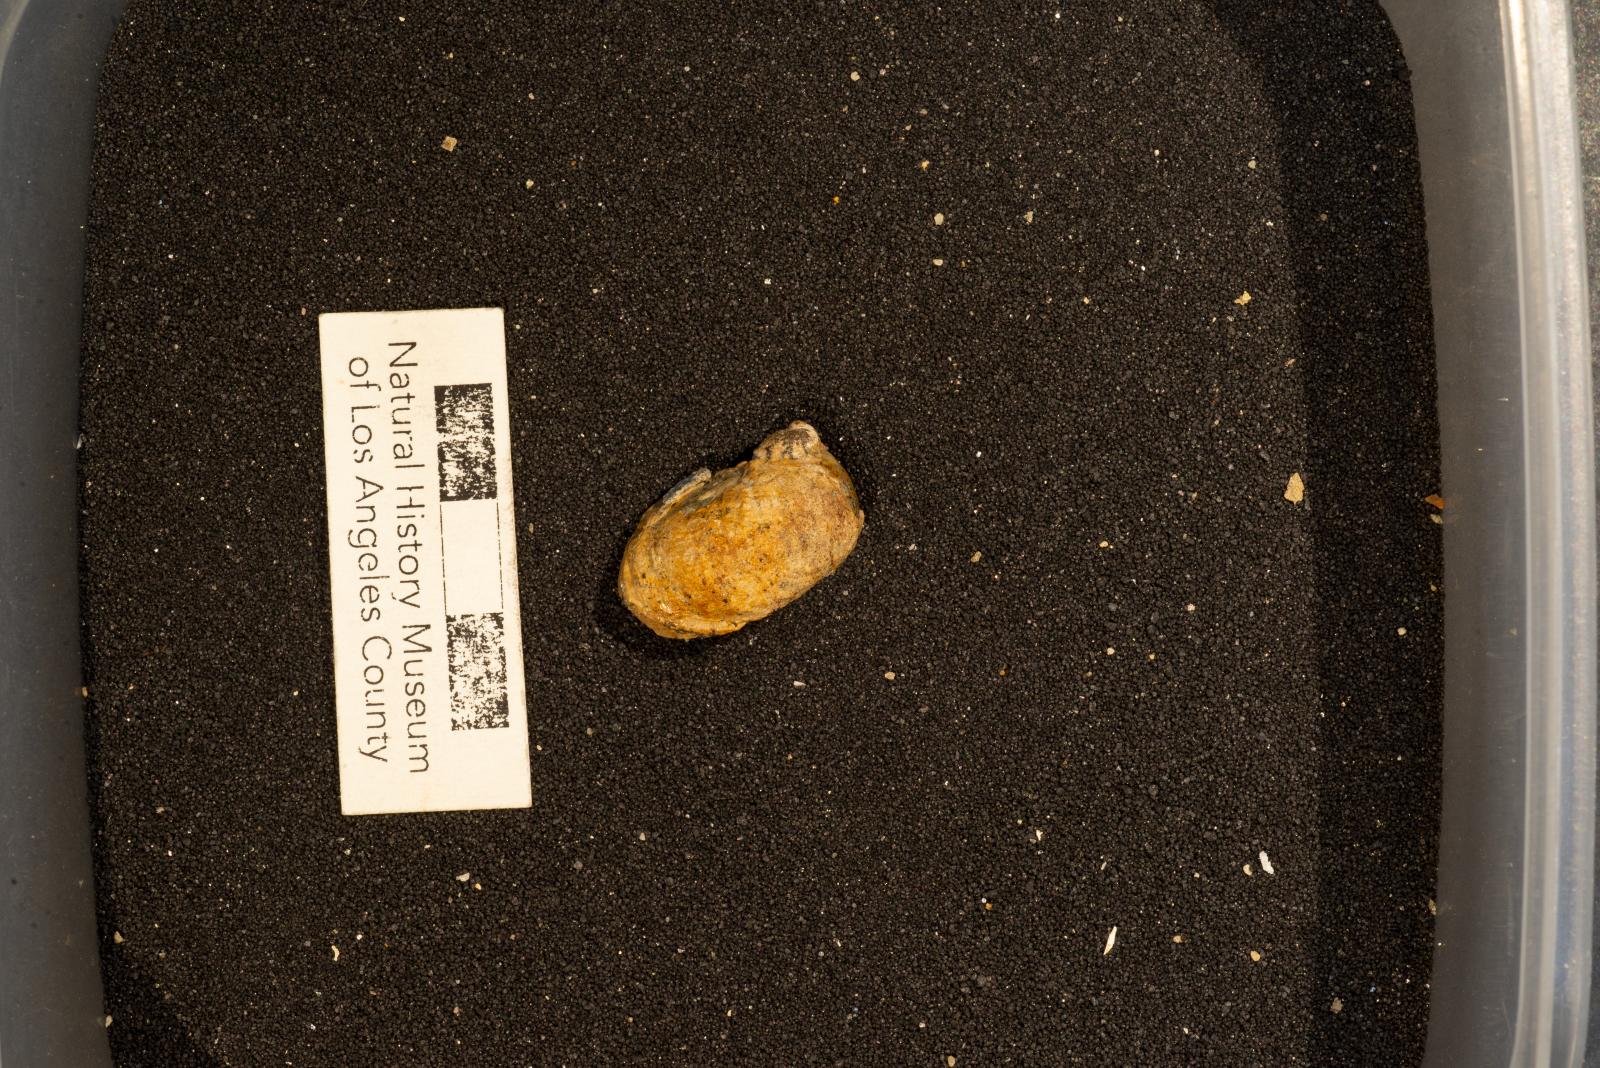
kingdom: Animalia
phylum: Mollusca
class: Gastropoda
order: Littorinimorpha
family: Calyptraeidae
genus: Lysis
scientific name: Lysis Stomatia suciensis
